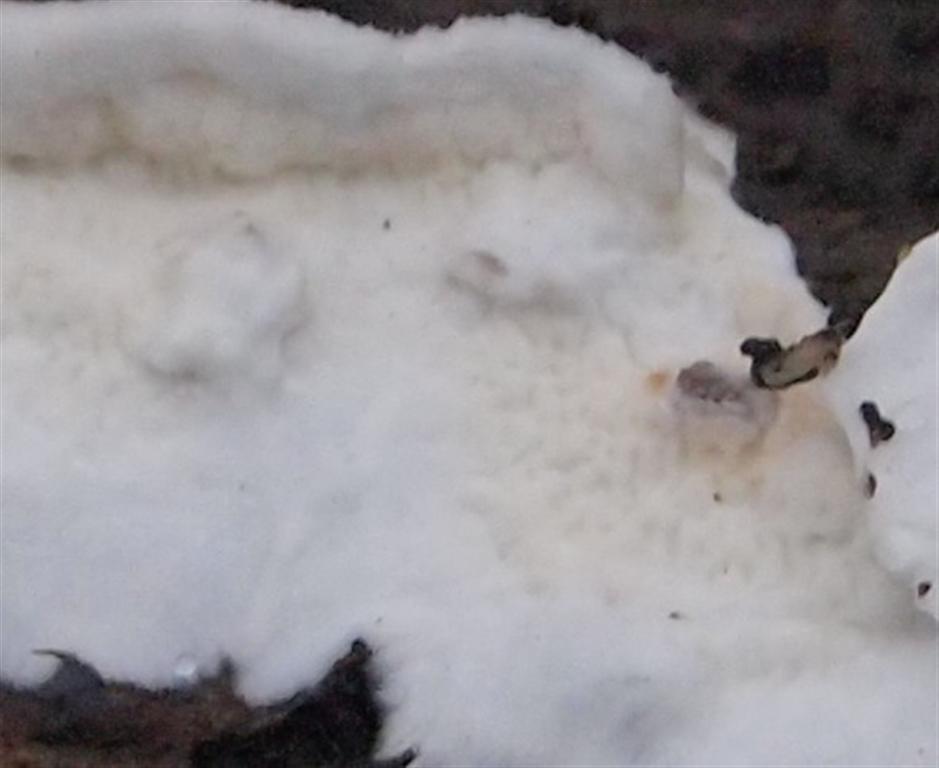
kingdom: Fungi
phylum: Basidiomycota
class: Agaricomycetes
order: Polyporales
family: Irpicaceae
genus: Byssomerulius
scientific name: Byssomerulius corium
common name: læder-åresvamp
